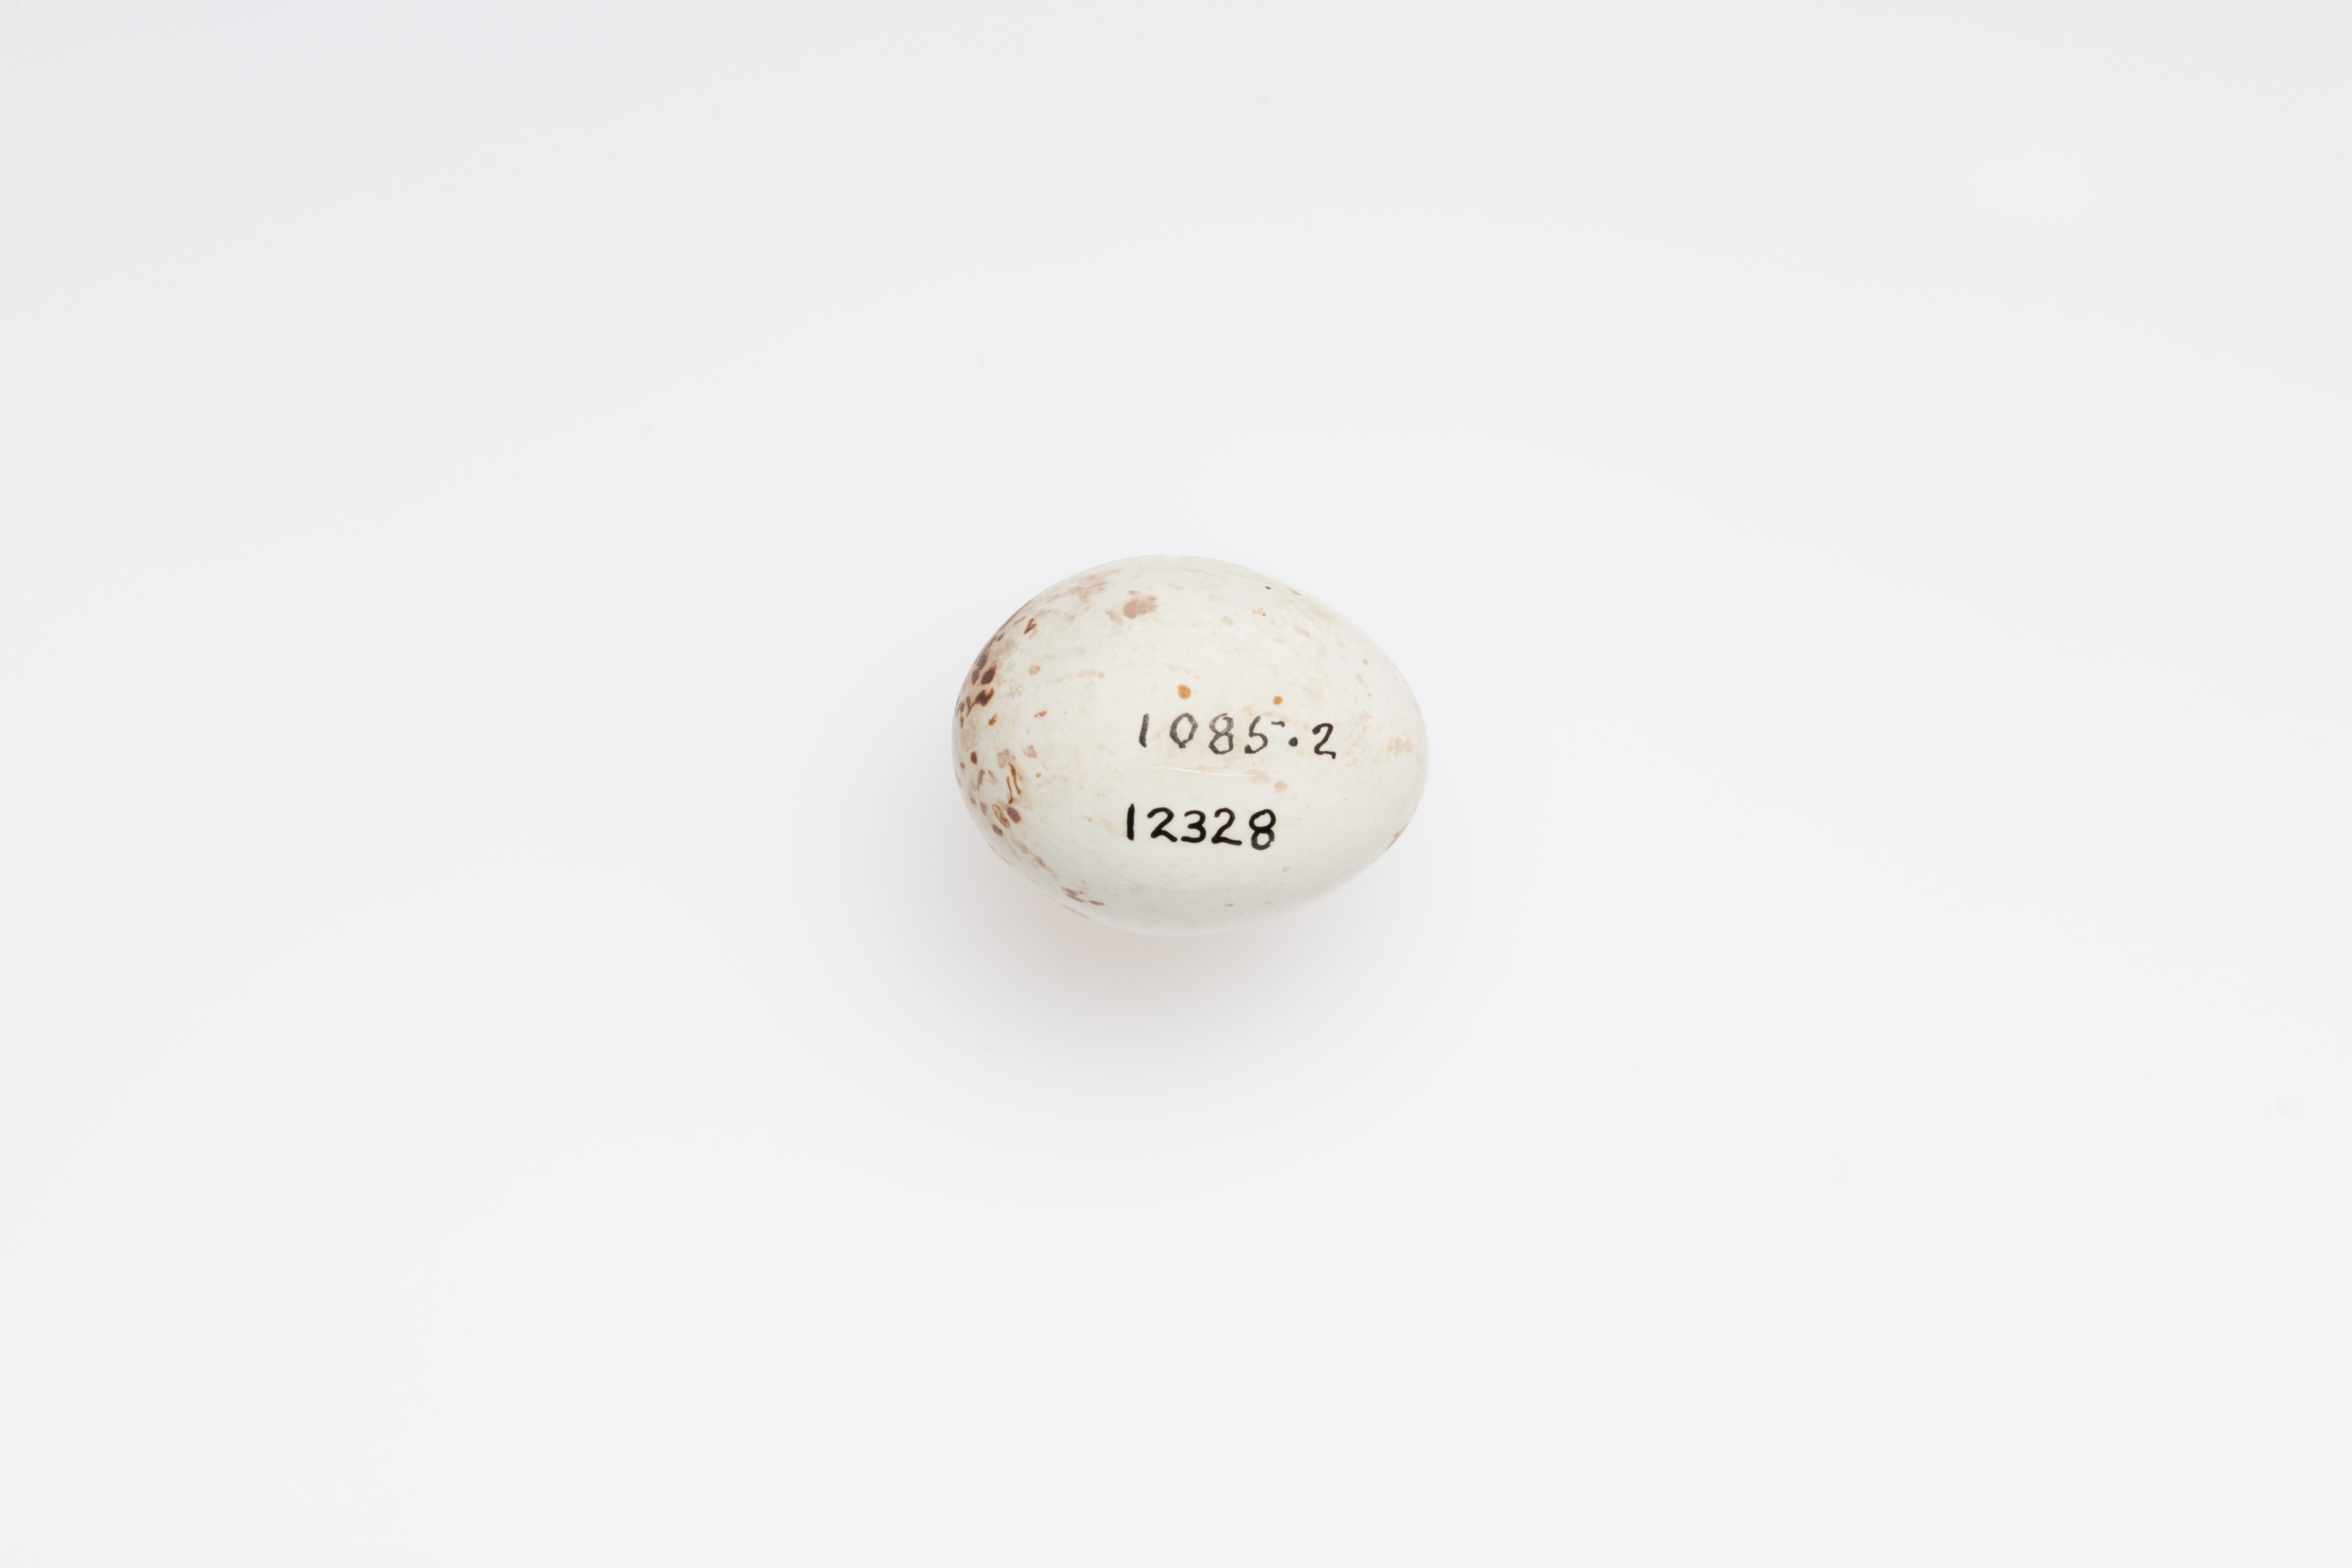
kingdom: Animalia
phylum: Chordata
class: Aves
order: Passeriformes
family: Fringillidae
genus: Pyrrhula
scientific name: Pyrrhula pyrrhula
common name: Eurasian bullfinch
